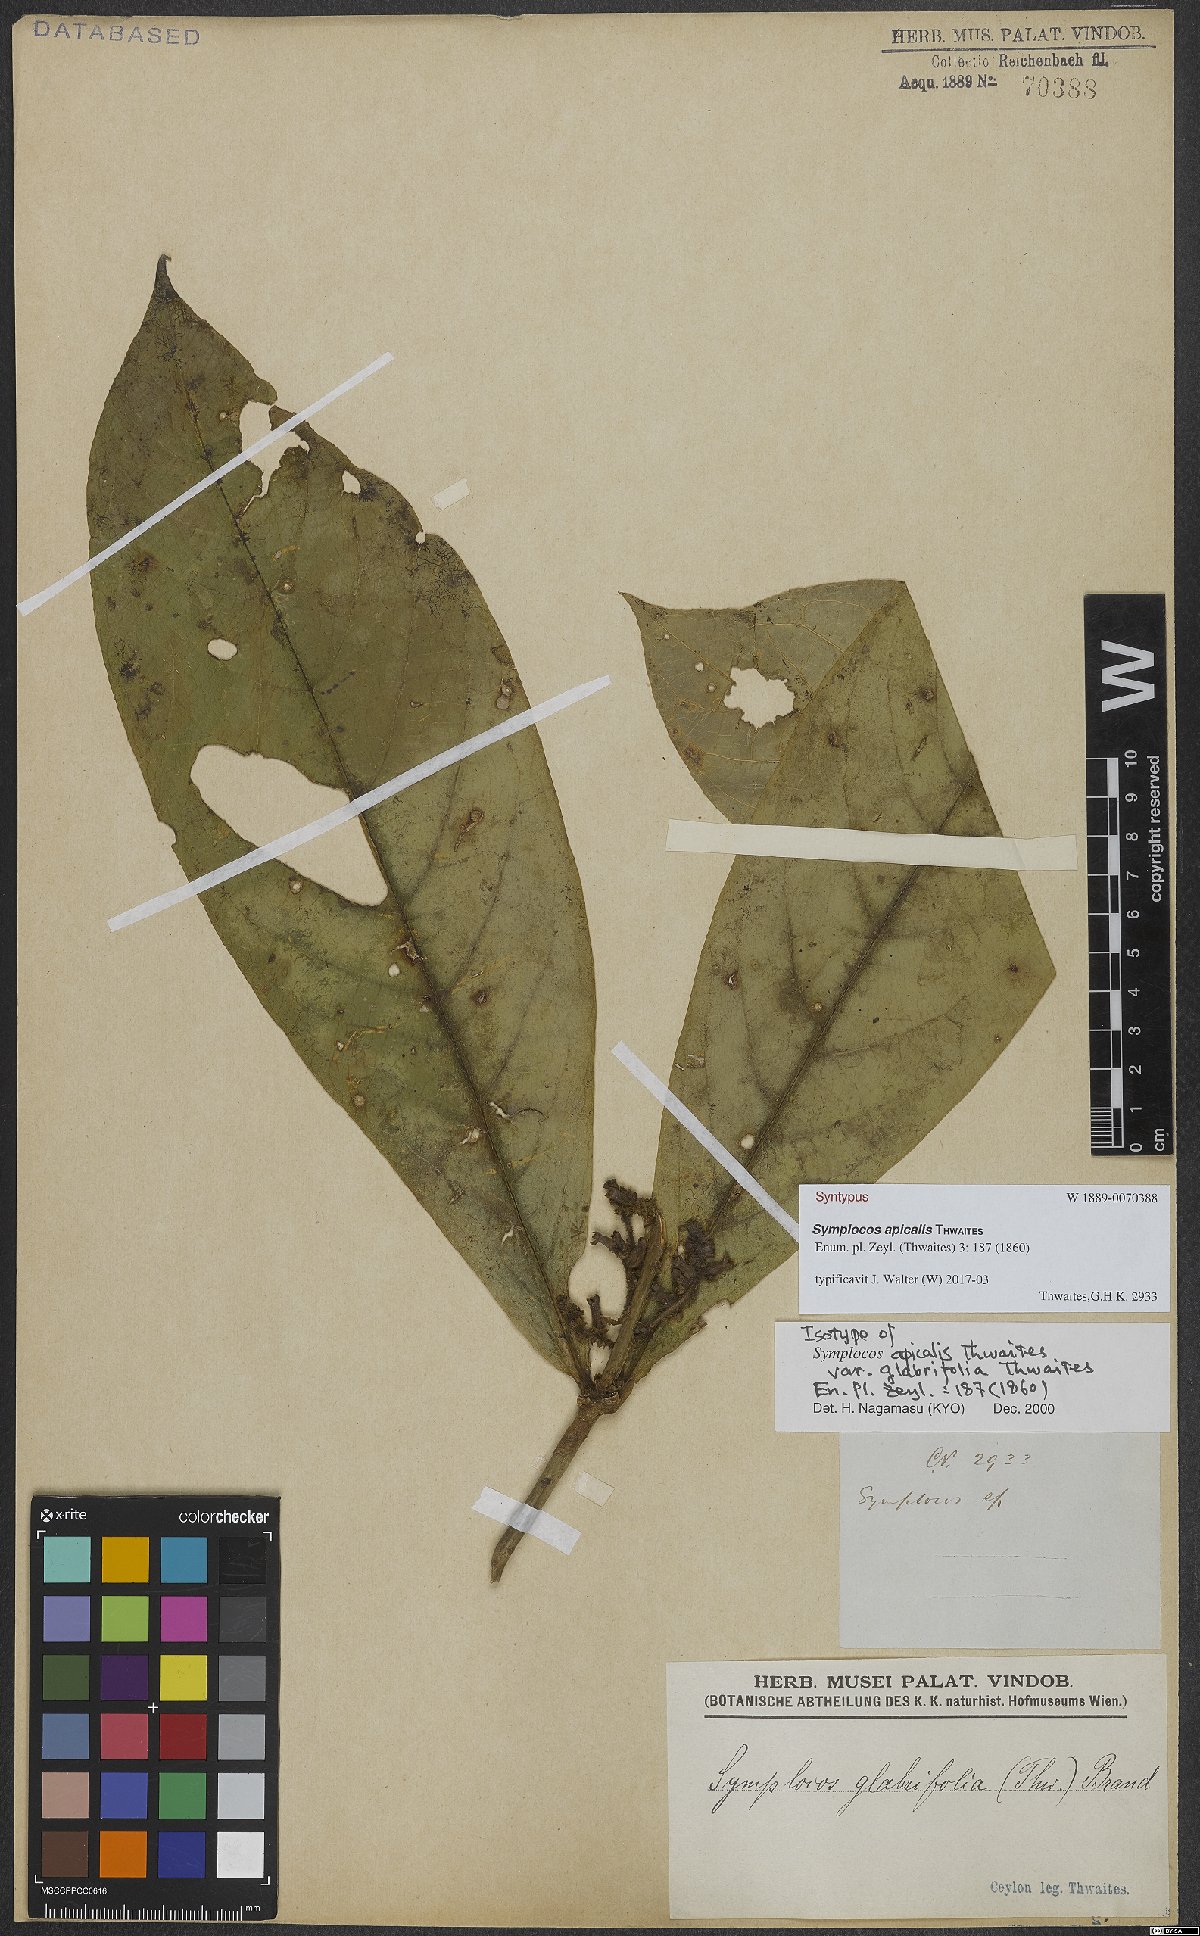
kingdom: Plantae
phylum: Tracheophyta
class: Magnoliopsida
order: Ericales
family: Symplocaceae
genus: Symplocos
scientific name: Symplocos coronata
